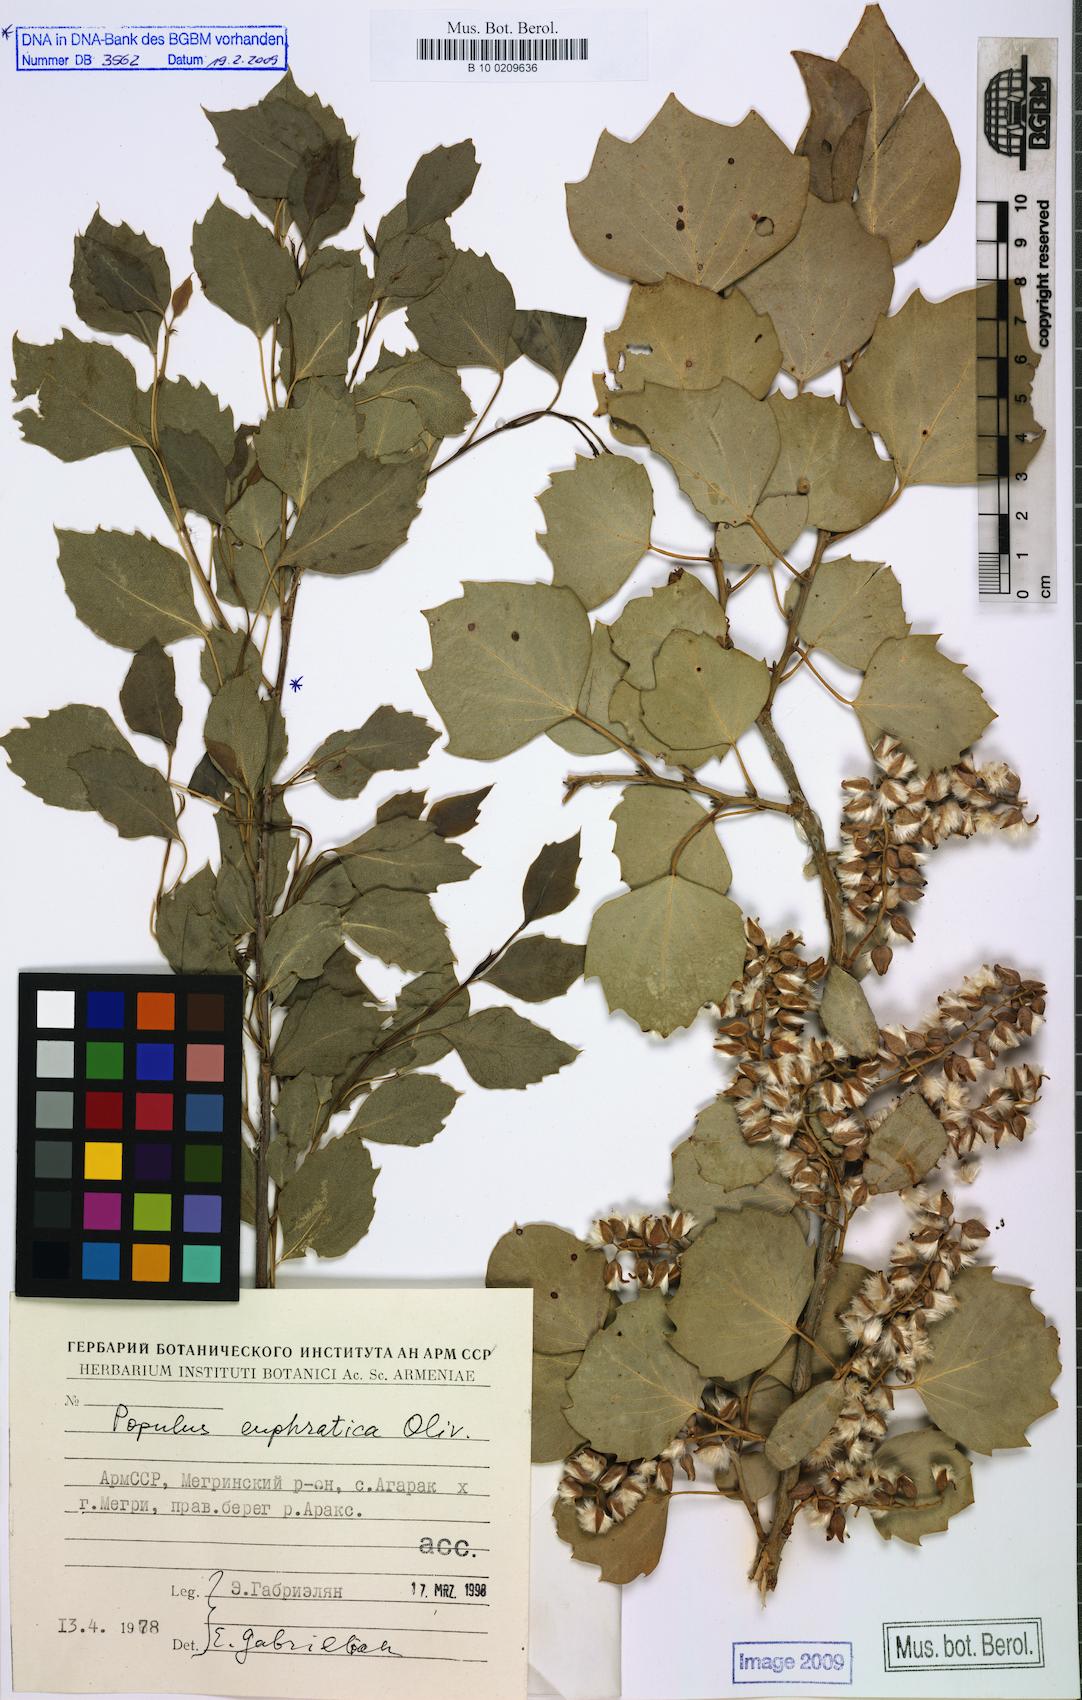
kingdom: Plantae
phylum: Tracheophyta
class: Magnoliopsida
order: Malpighiales
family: Salicaceae
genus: Populus
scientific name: Populus euphratica
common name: Euphrates poplar
